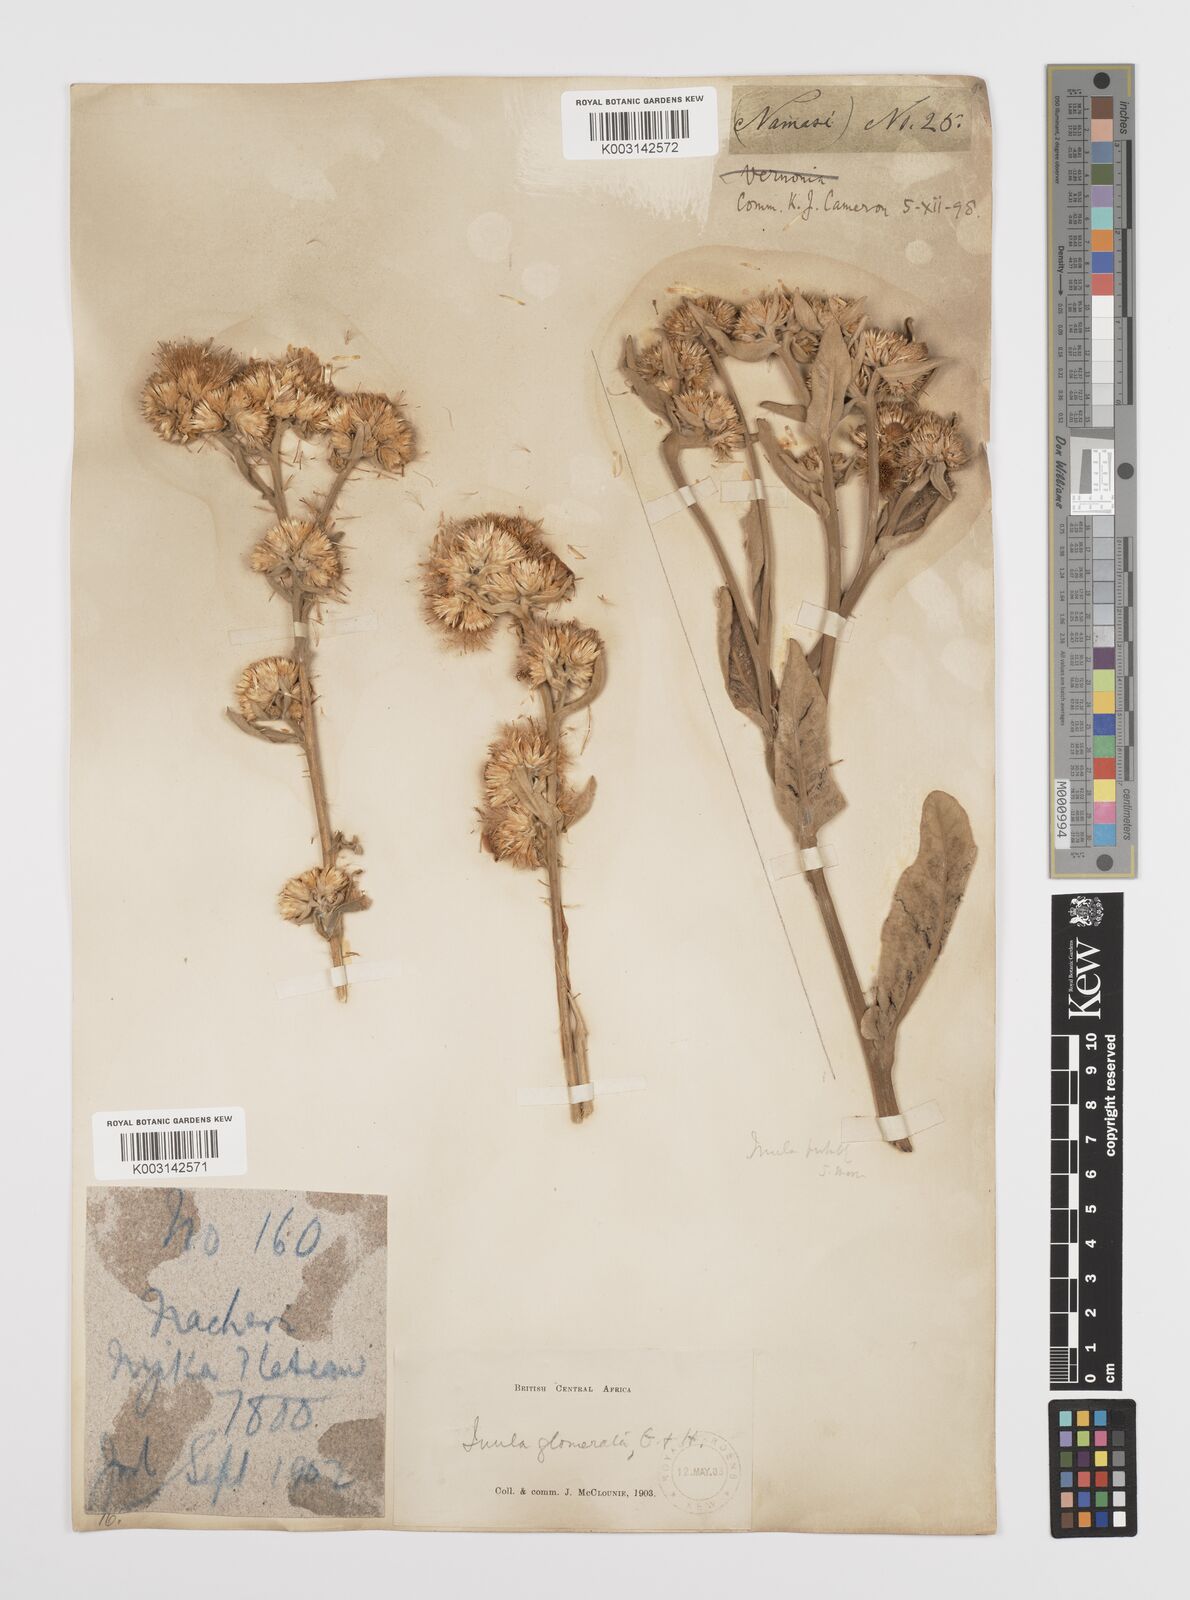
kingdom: Plantae
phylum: Tracheophyta
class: Magnoliopsida
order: Asterales
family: Asteraceae
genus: Inula
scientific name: Inula glomerata
